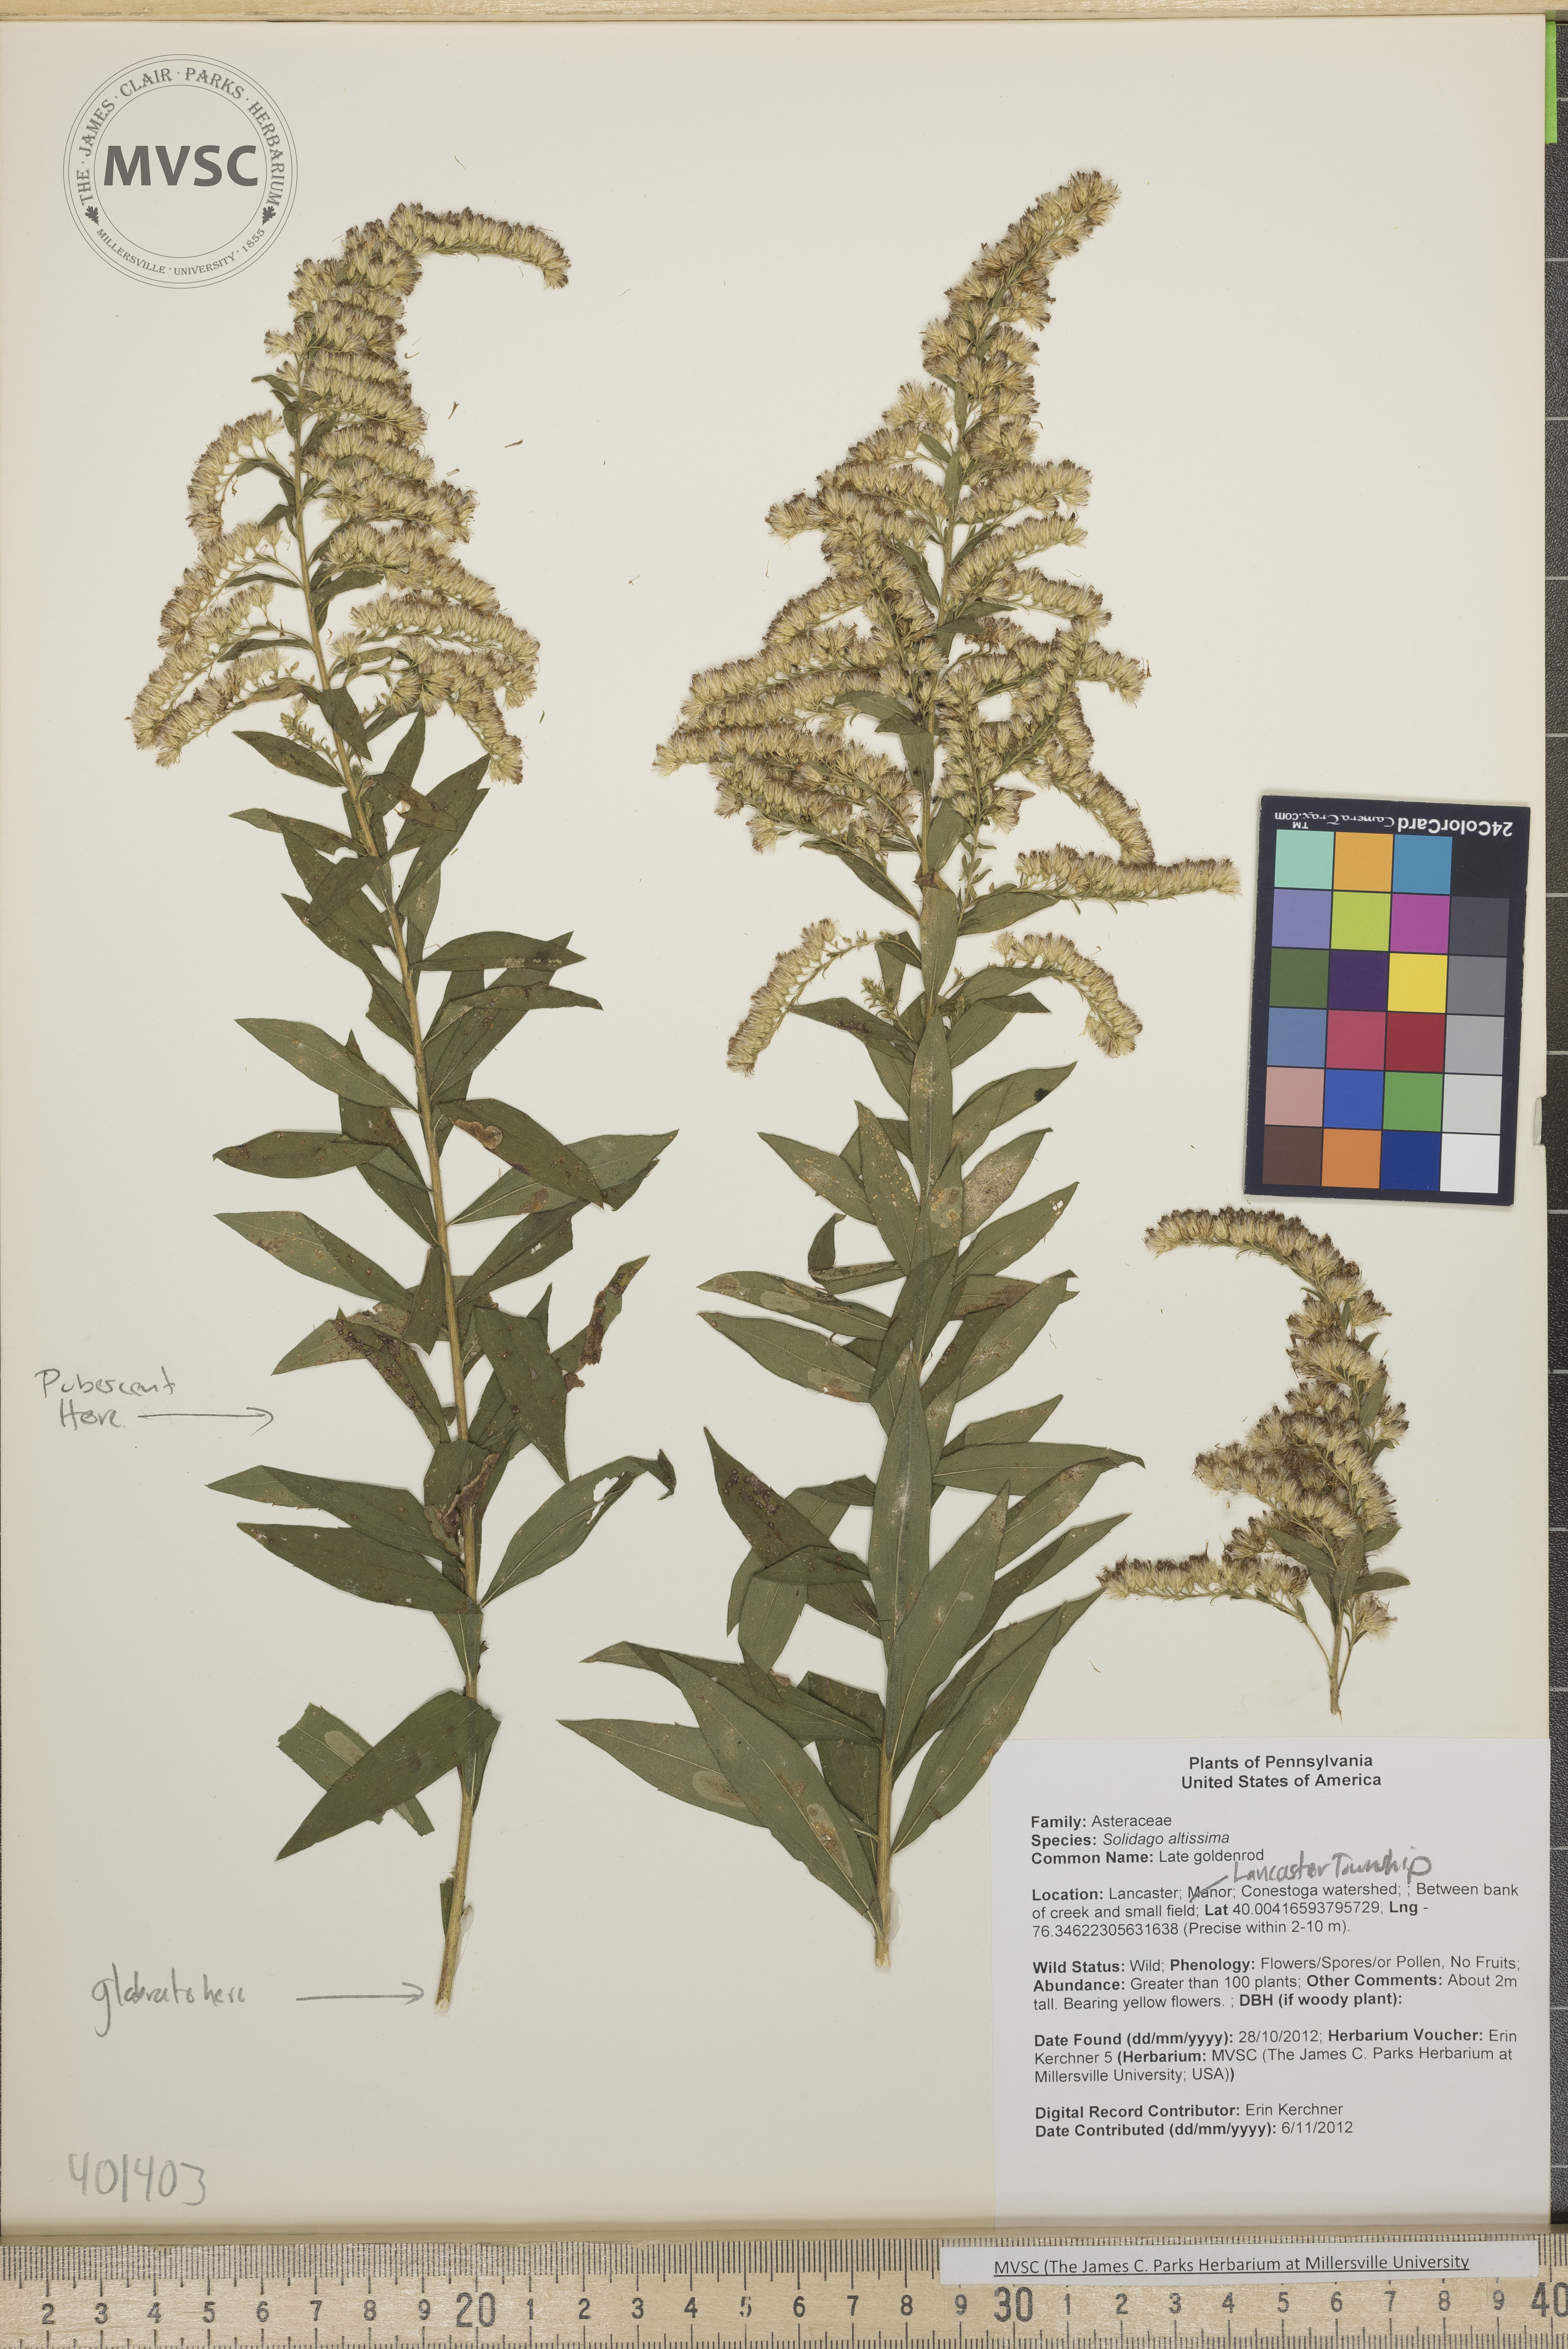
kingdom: Plantae
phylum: Tracheophyta
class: Magnoliopsida
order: Asterales
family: Asteraceae
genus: Solidago
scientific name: Solidago altissima
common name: Late Goldenrod
